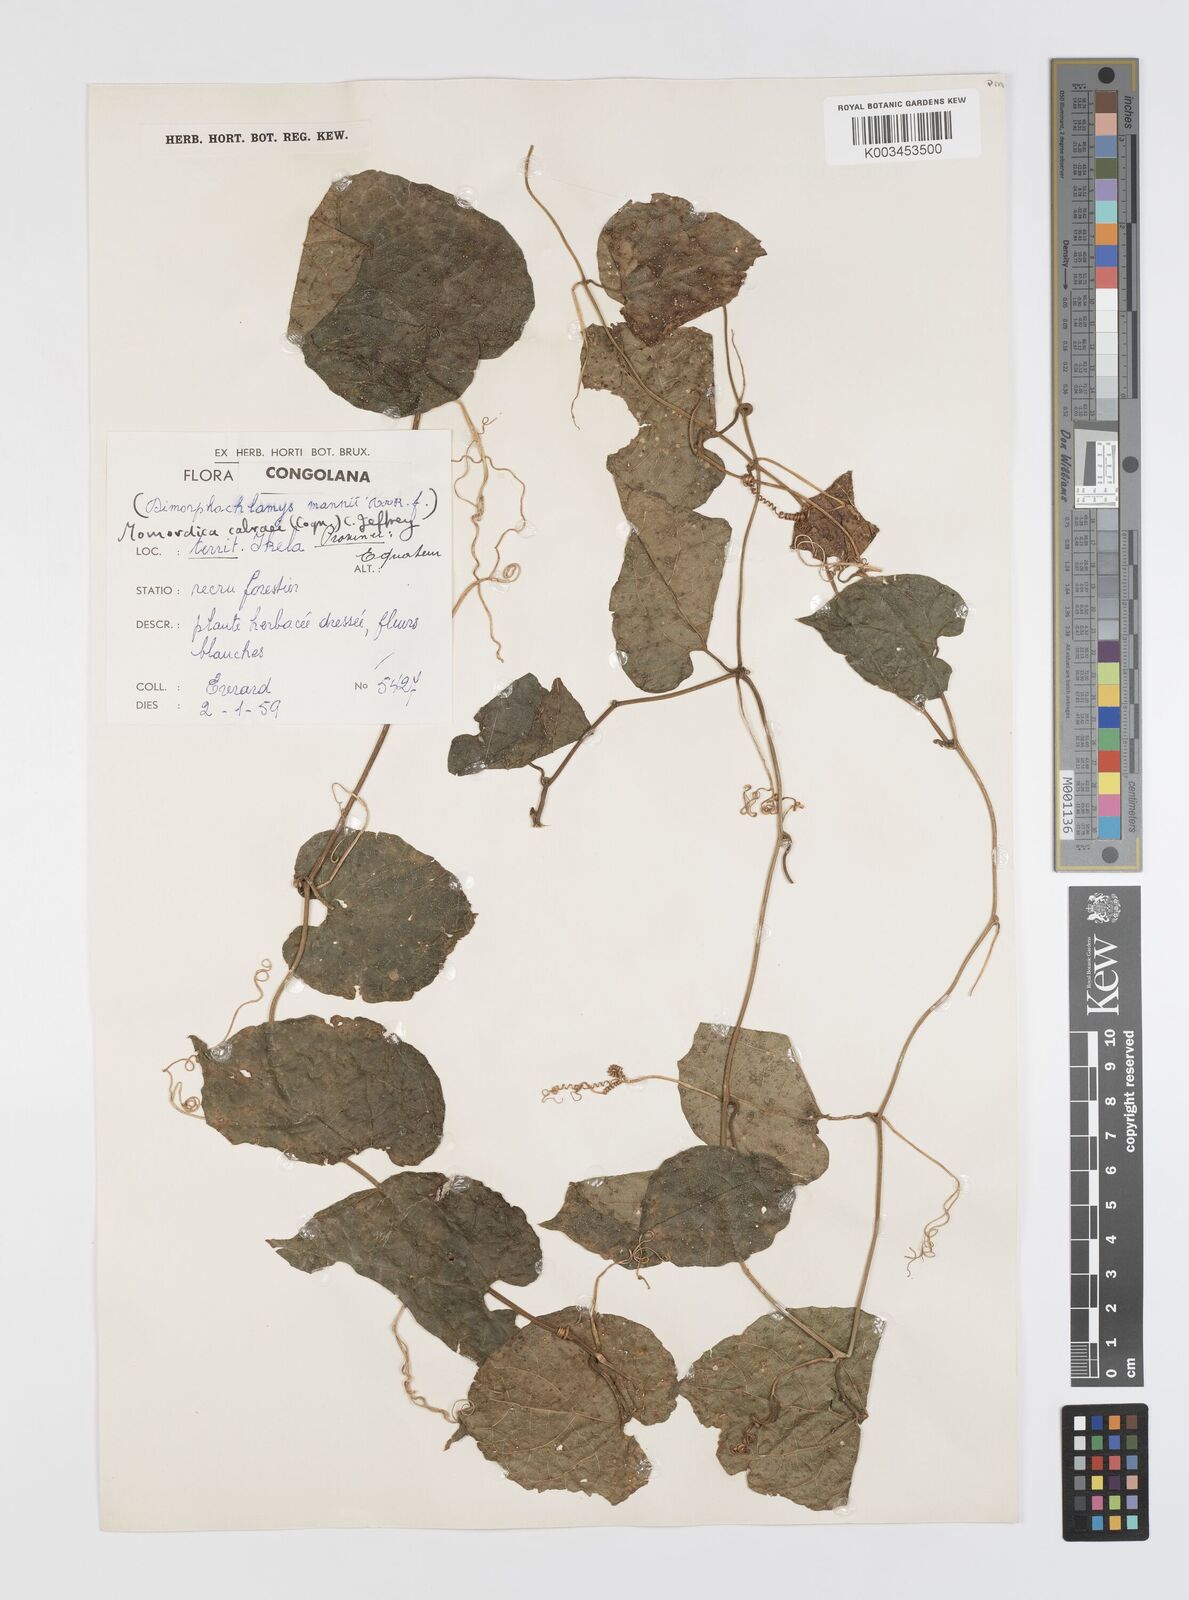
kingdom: Plantae
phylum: Tracheophyta
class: Magnoliopsida
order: Cucurbitales
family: Cucurbitaceae
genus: Momordica
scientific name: Momordica cabrae
